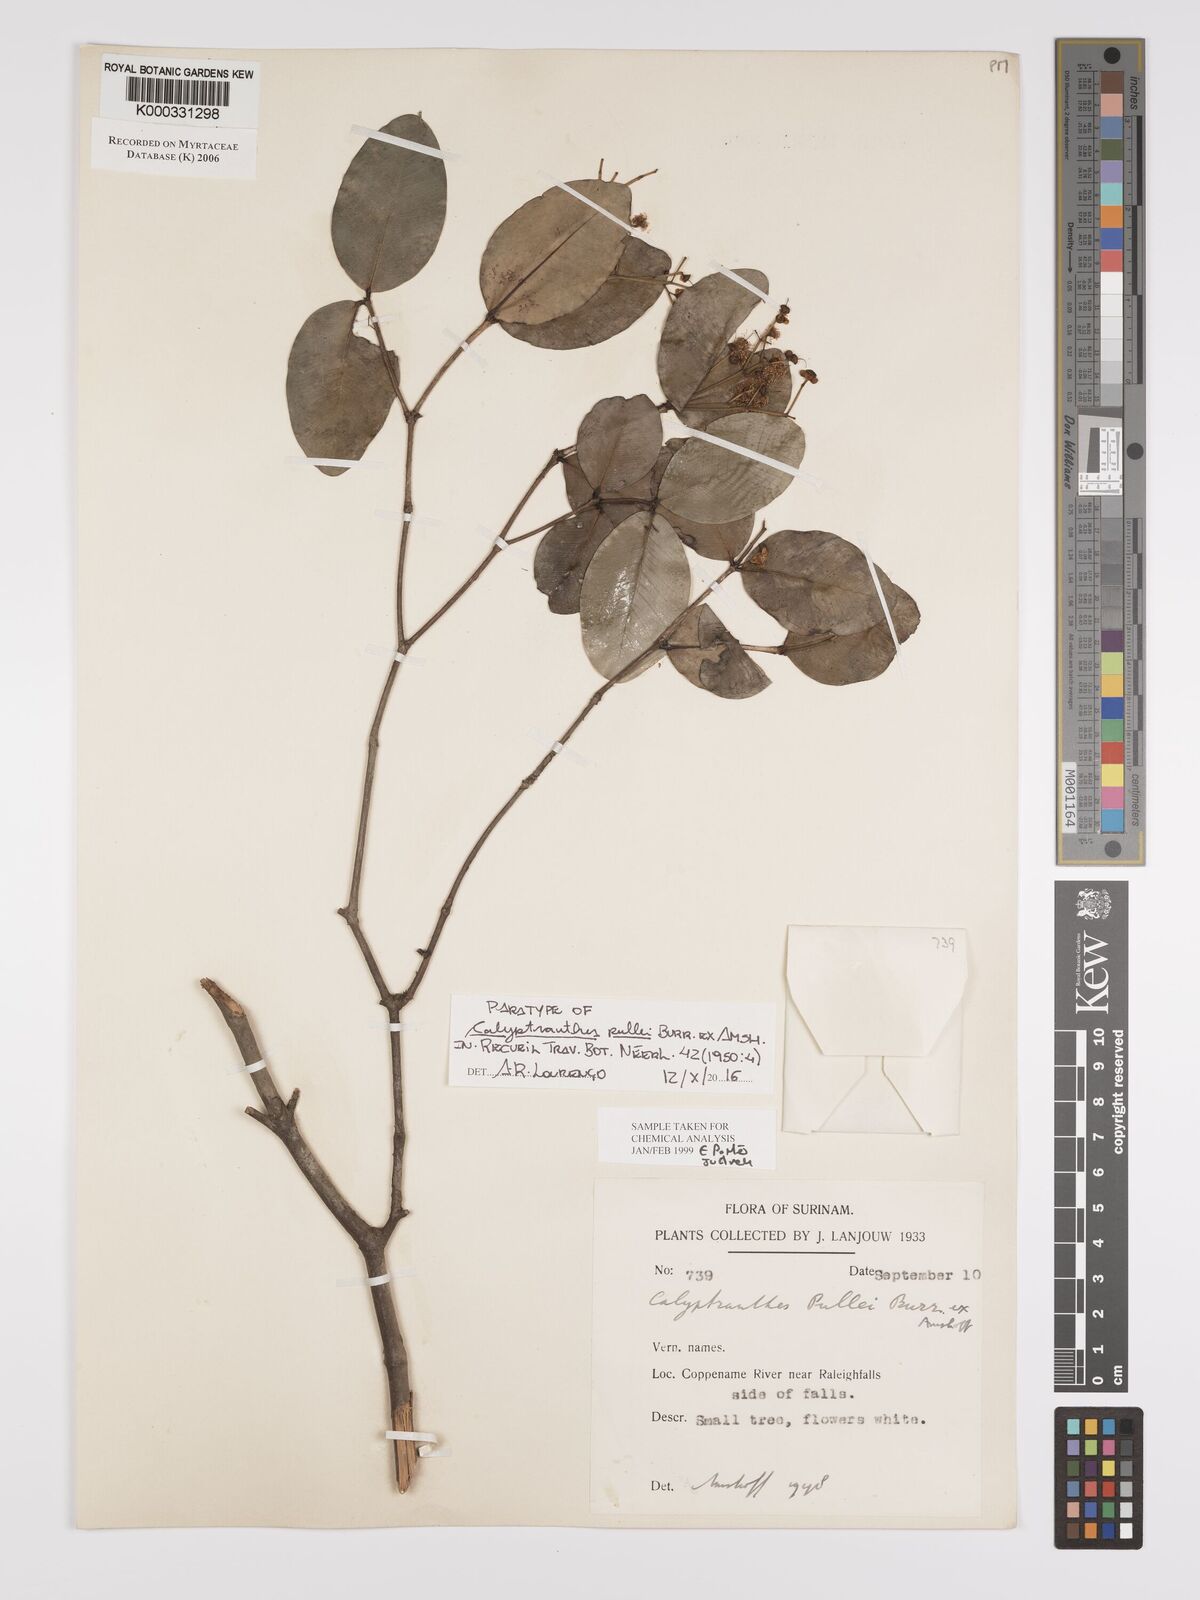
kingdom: Plantae
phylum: Tracheophyta
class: Magnoliopsida
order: Myrtales
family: Myrtaceae
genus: Myrcia
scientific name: Myrcia pullei
